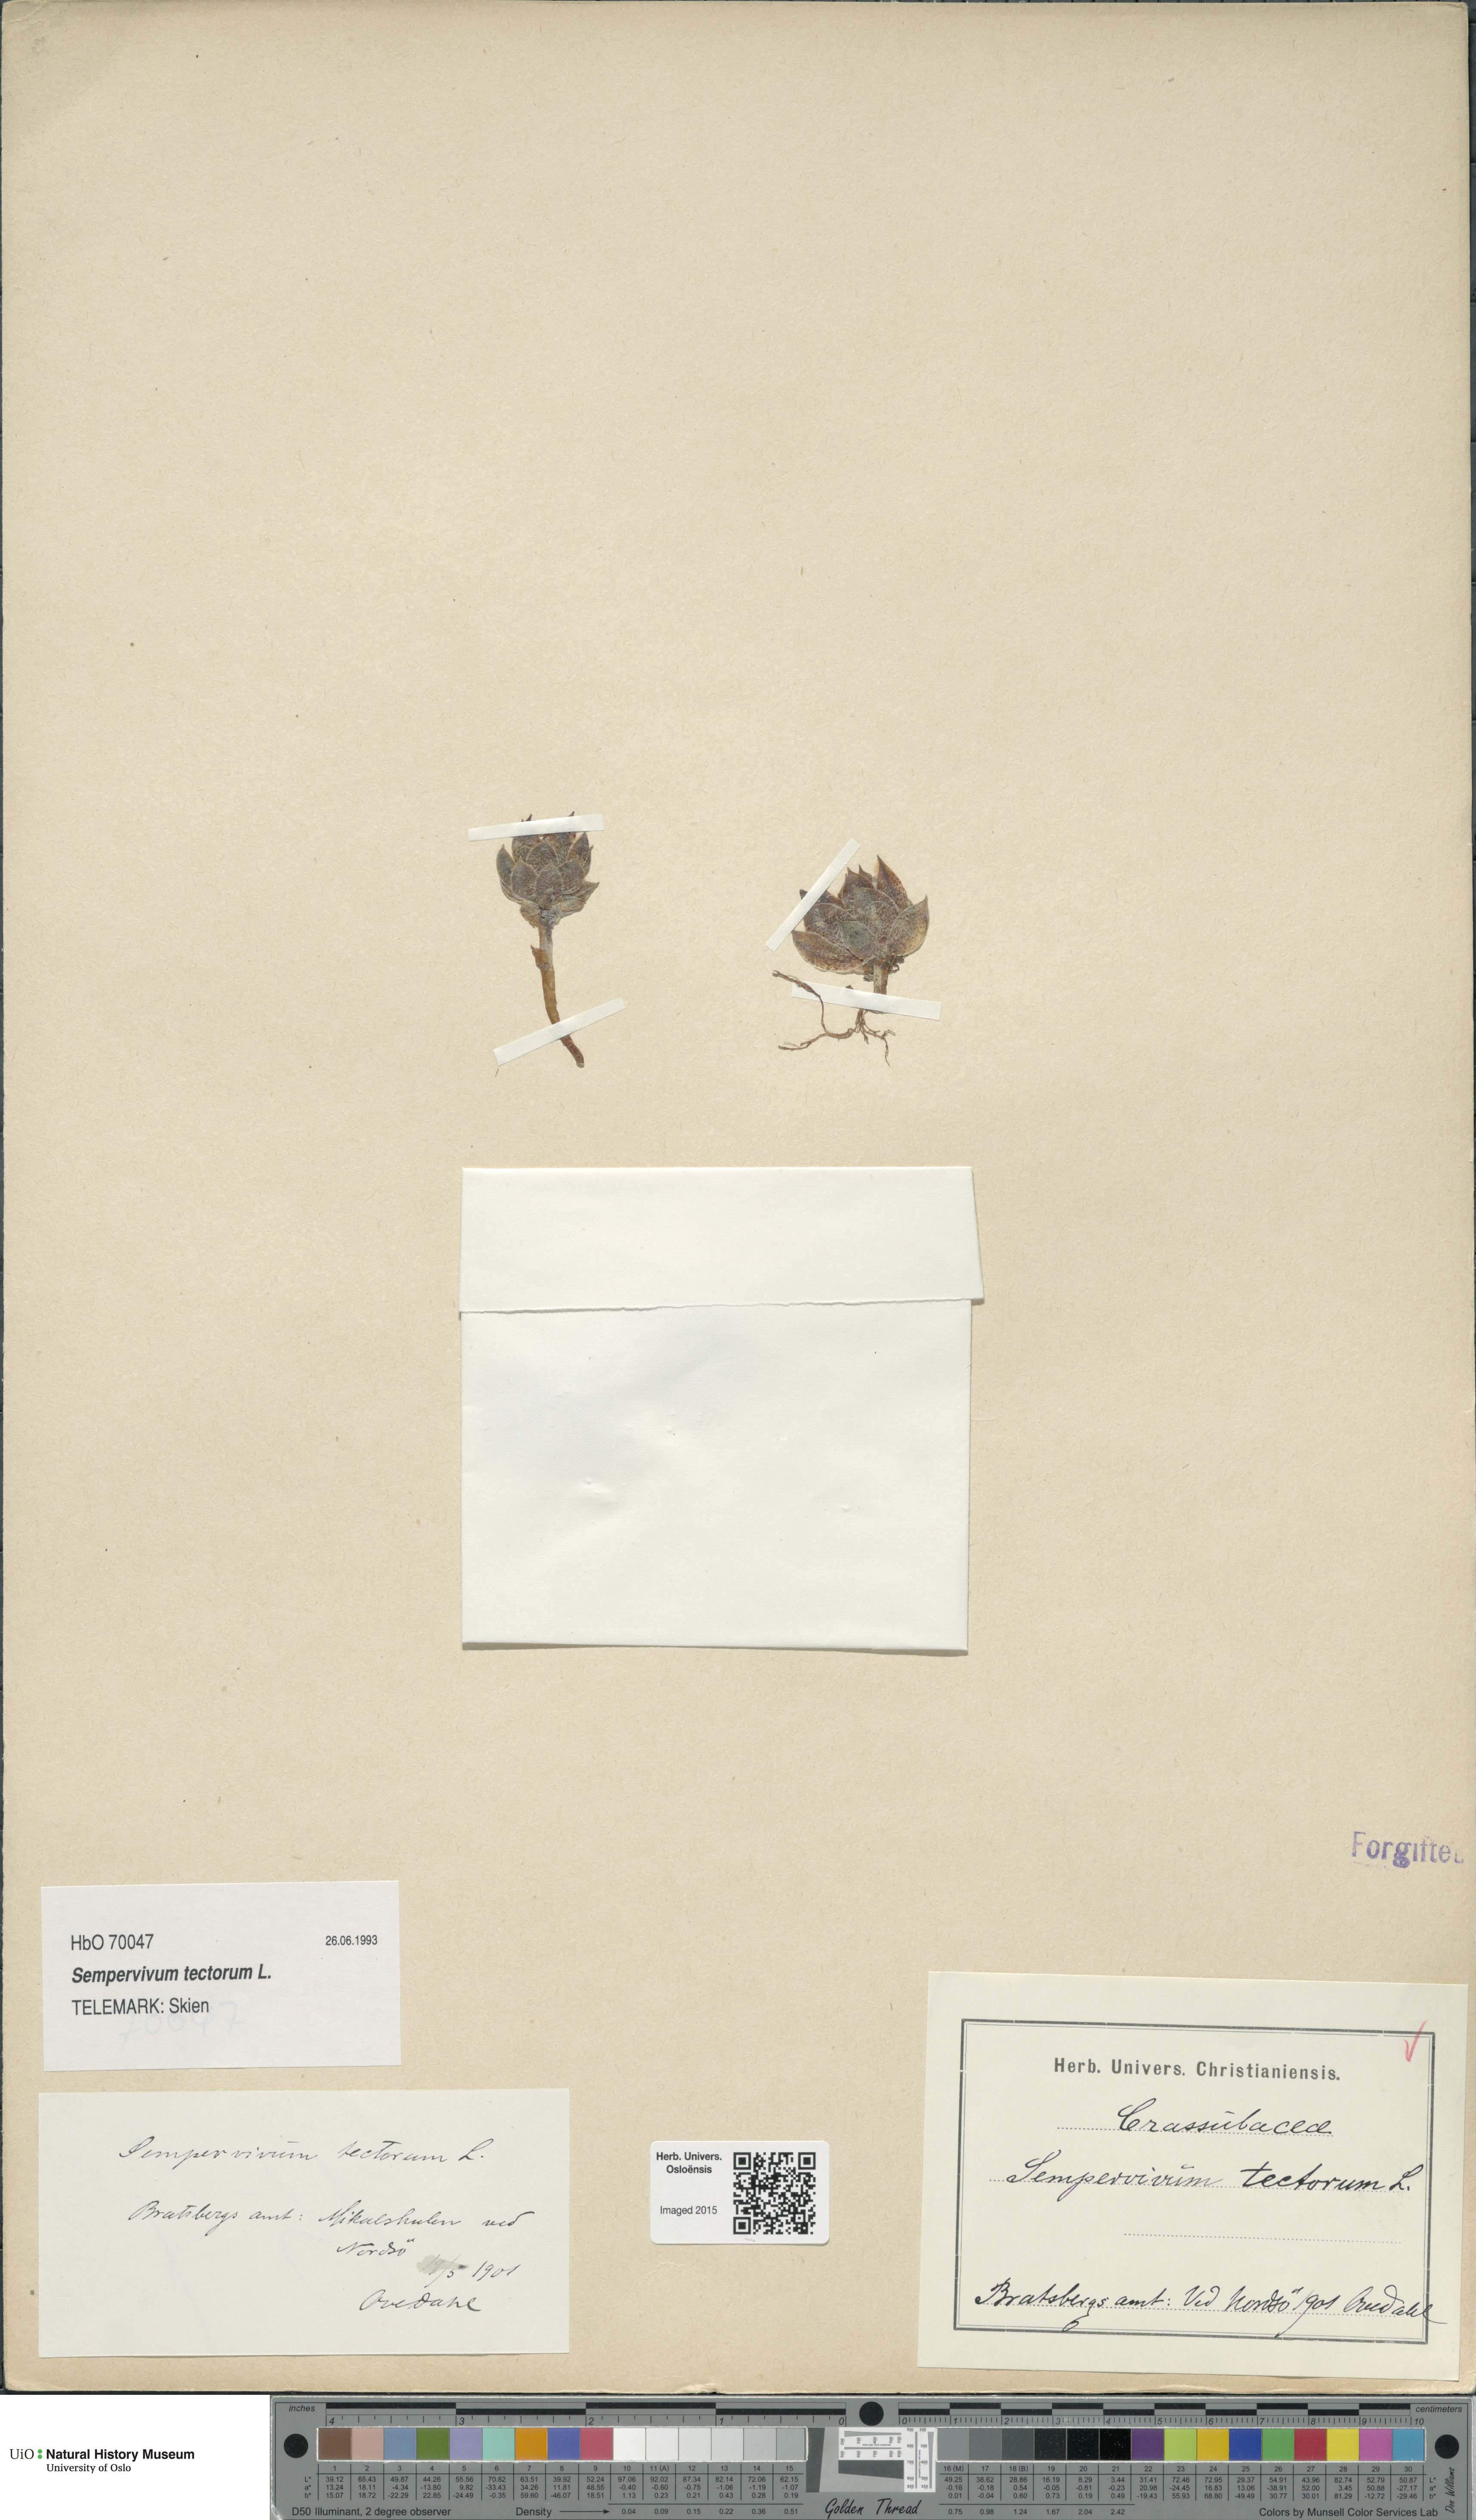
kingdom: Plantae
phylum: Tracheophyta
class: Magnoliopsida
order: Saxifragales
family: Crassulaceae
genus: Sempervivum
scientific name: Sempervivum tectorum
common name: House-leek
